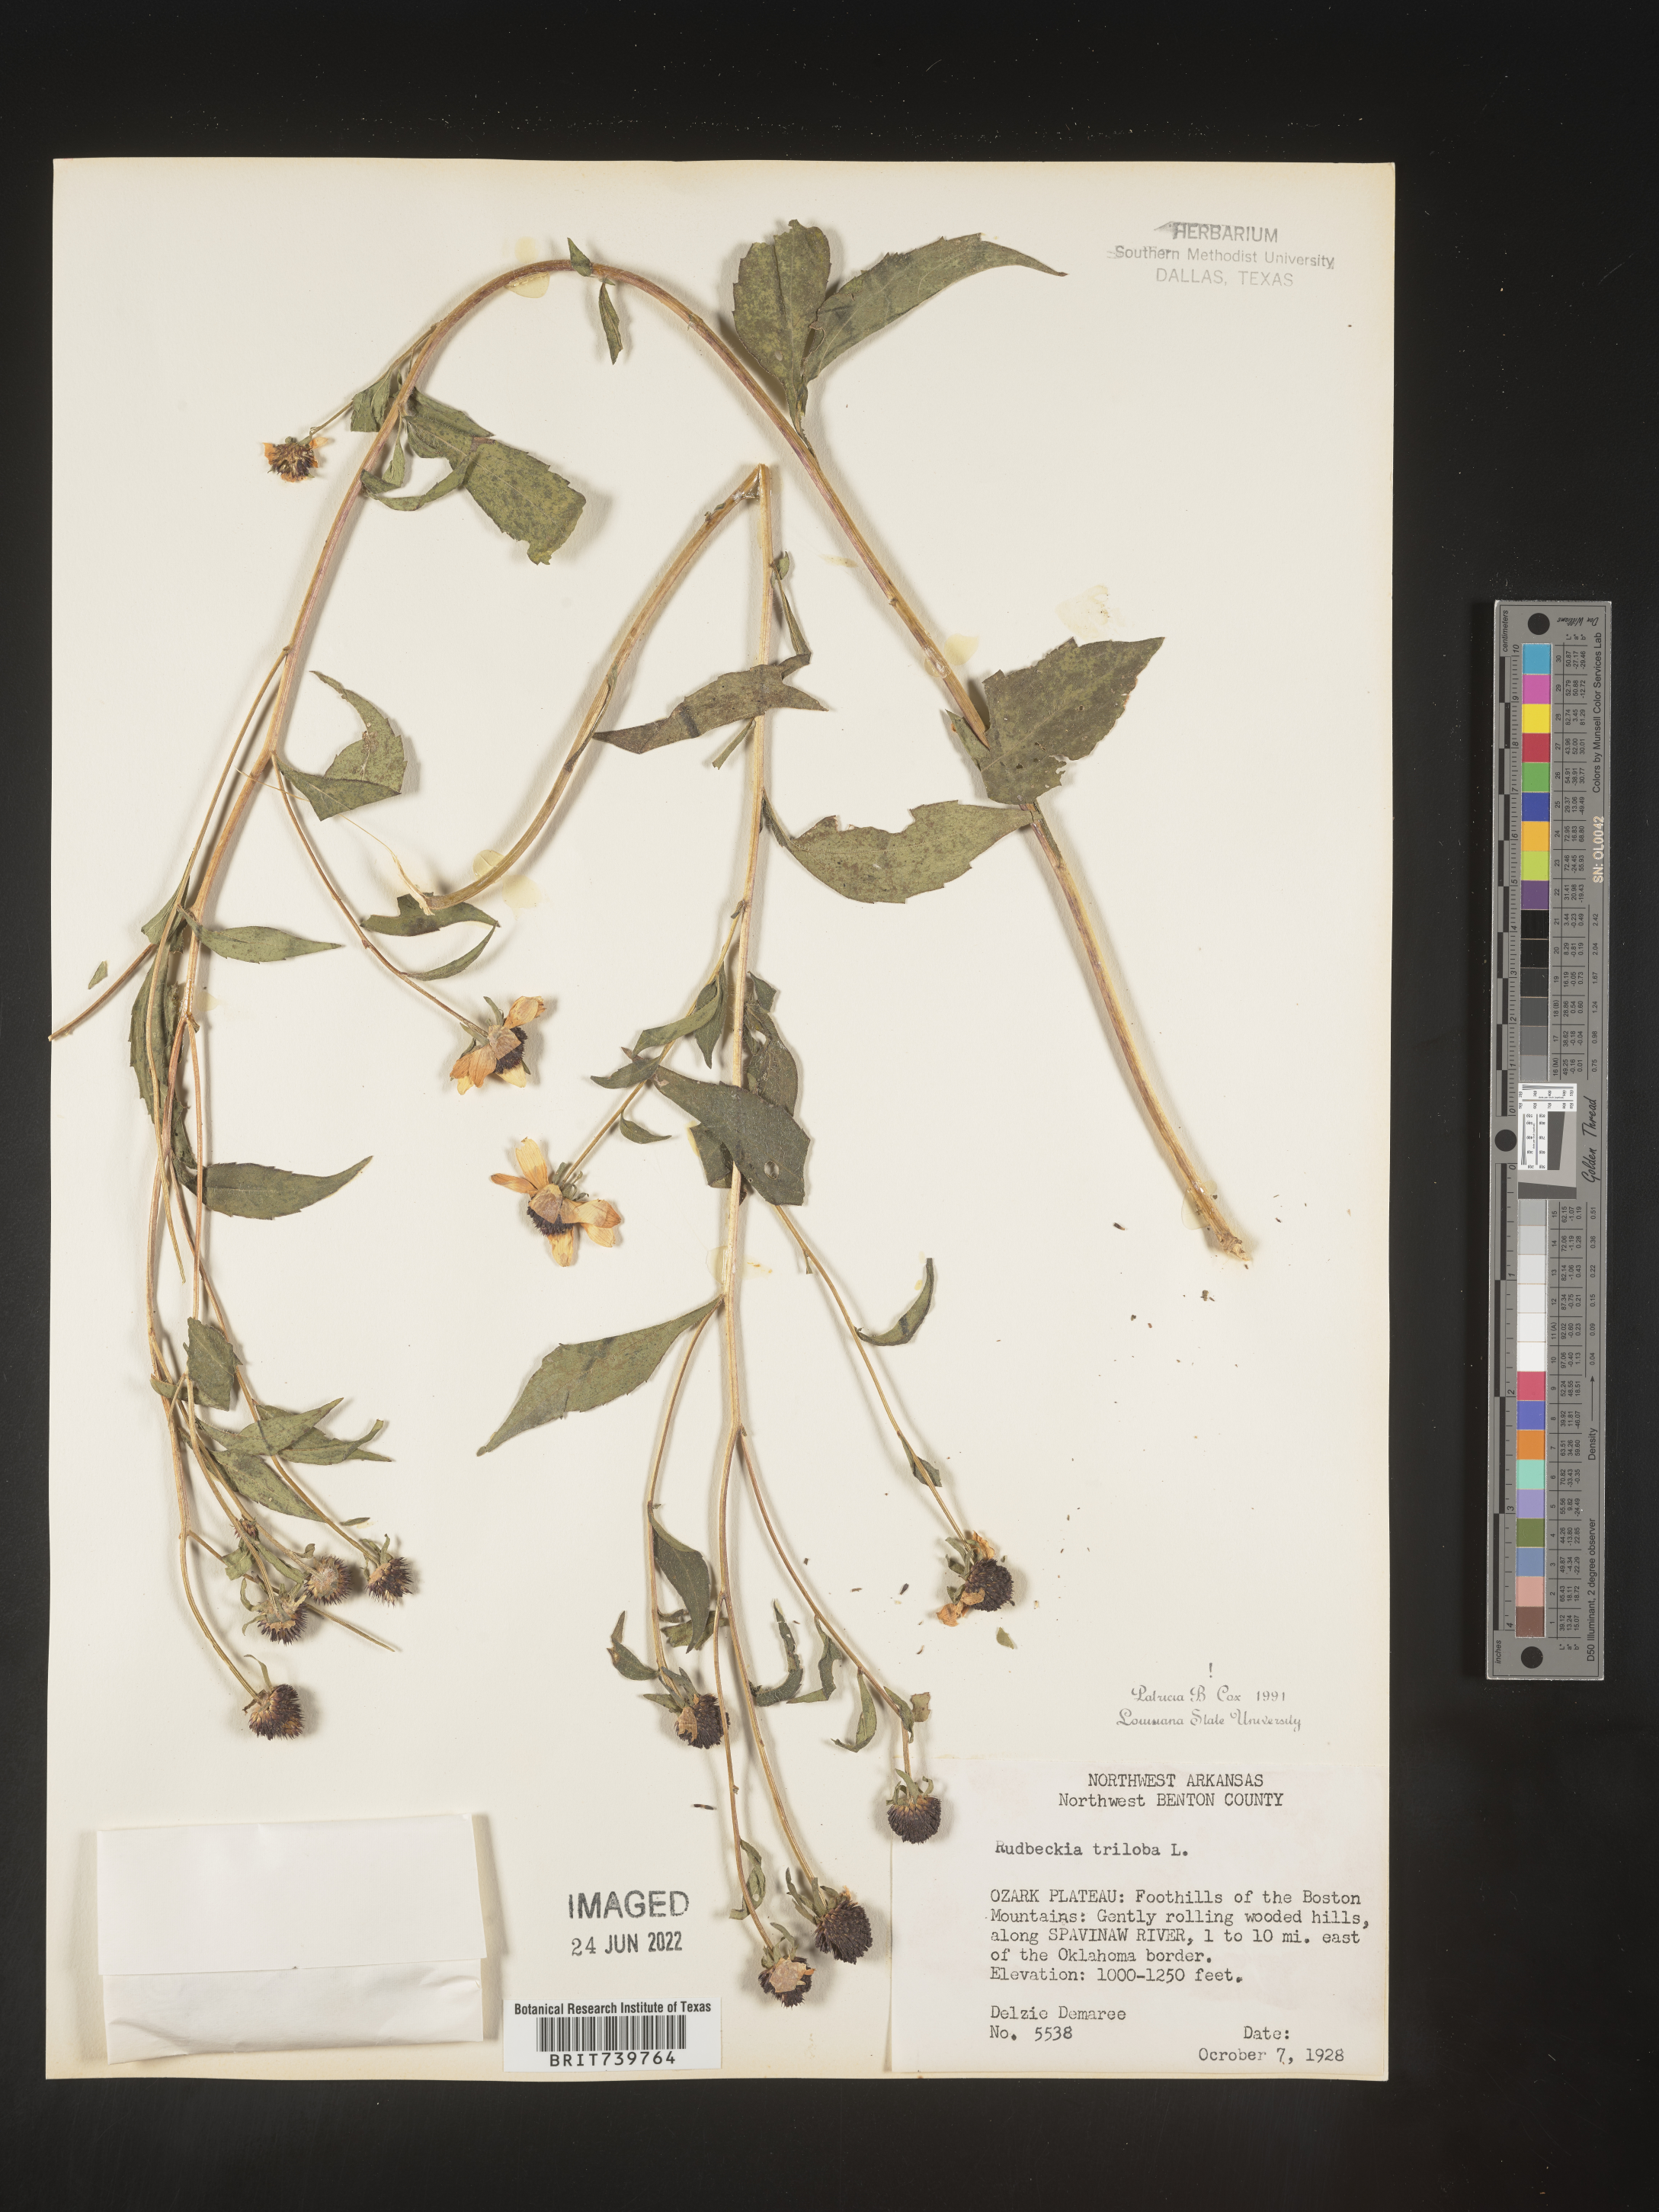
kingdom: Plantae
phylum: Tracheophyta
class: Magnoliopsida
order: Asterales
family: Asteraceae
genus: Rudbeckia
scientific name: Rudbeckia triloba
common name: Thin-leaved coneflower
